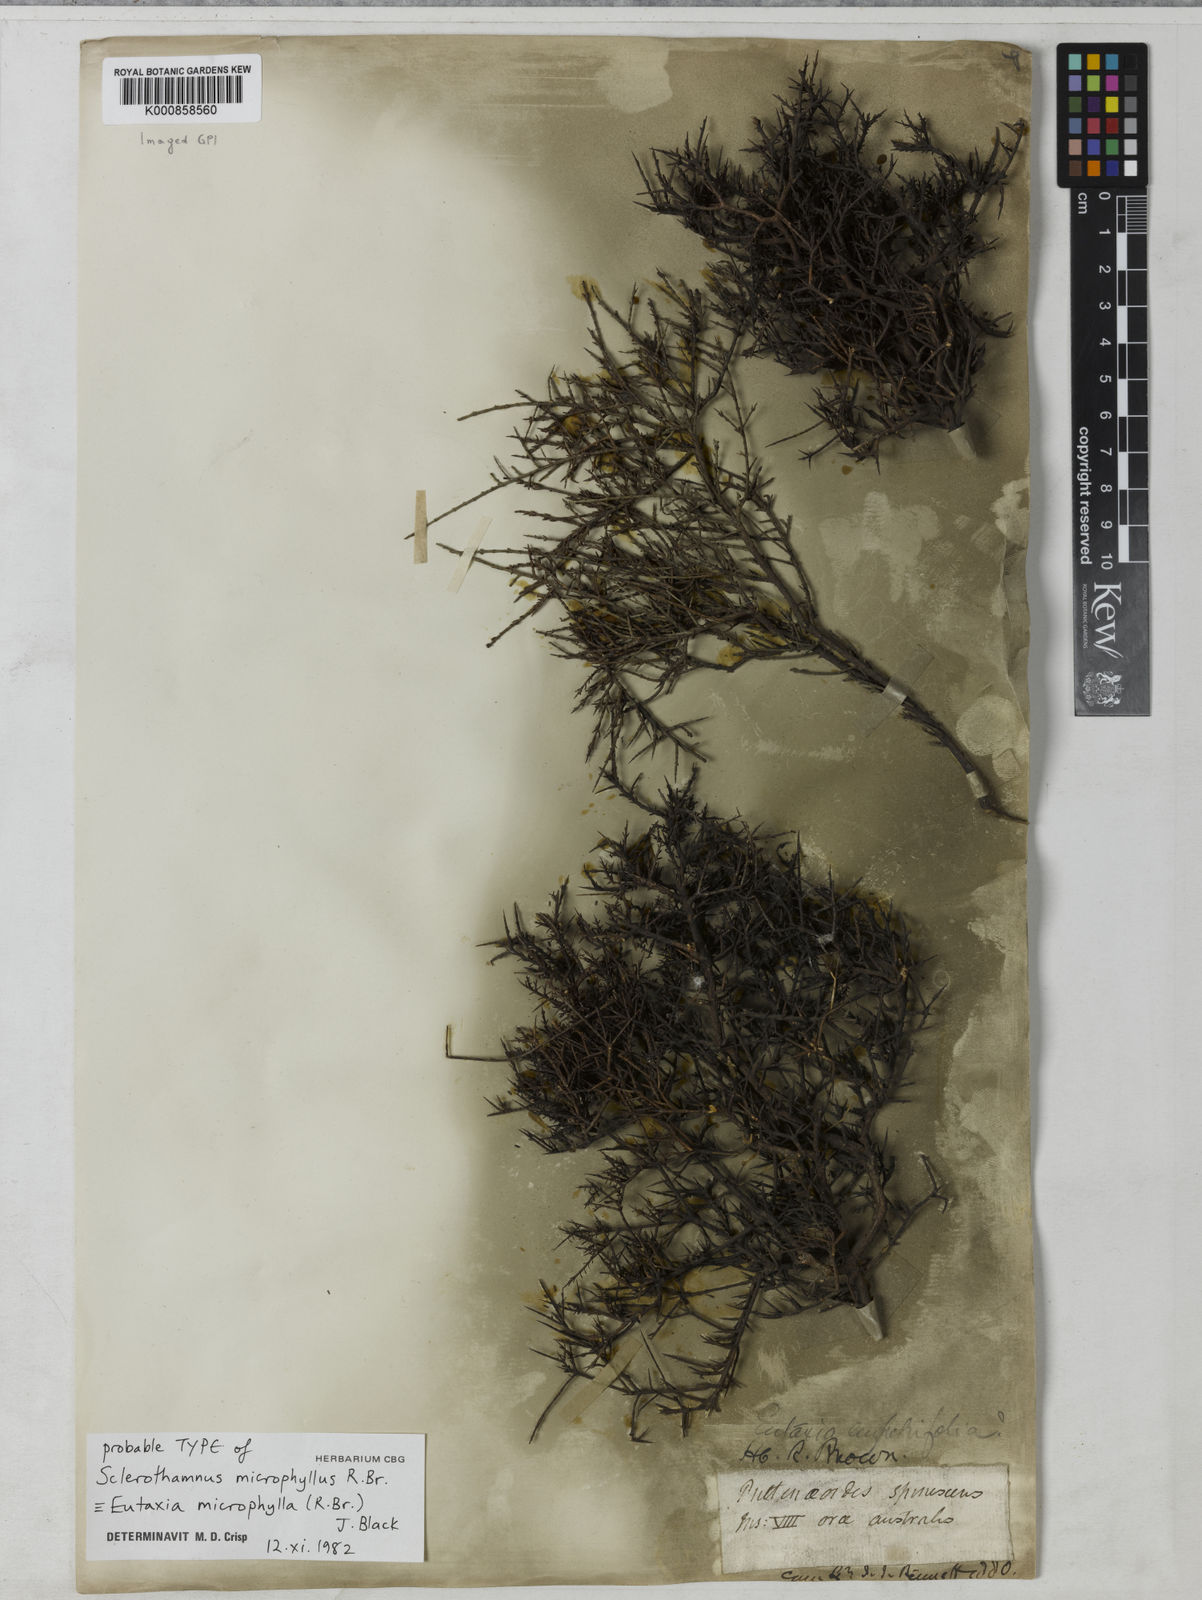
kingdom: Plantae
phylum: Tracheophyta
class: Magnoliopsida
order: Fabales
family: Fabaceae
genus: Eutaxia
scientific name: Eutaxia microphylla
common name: Mallee bush-pea
